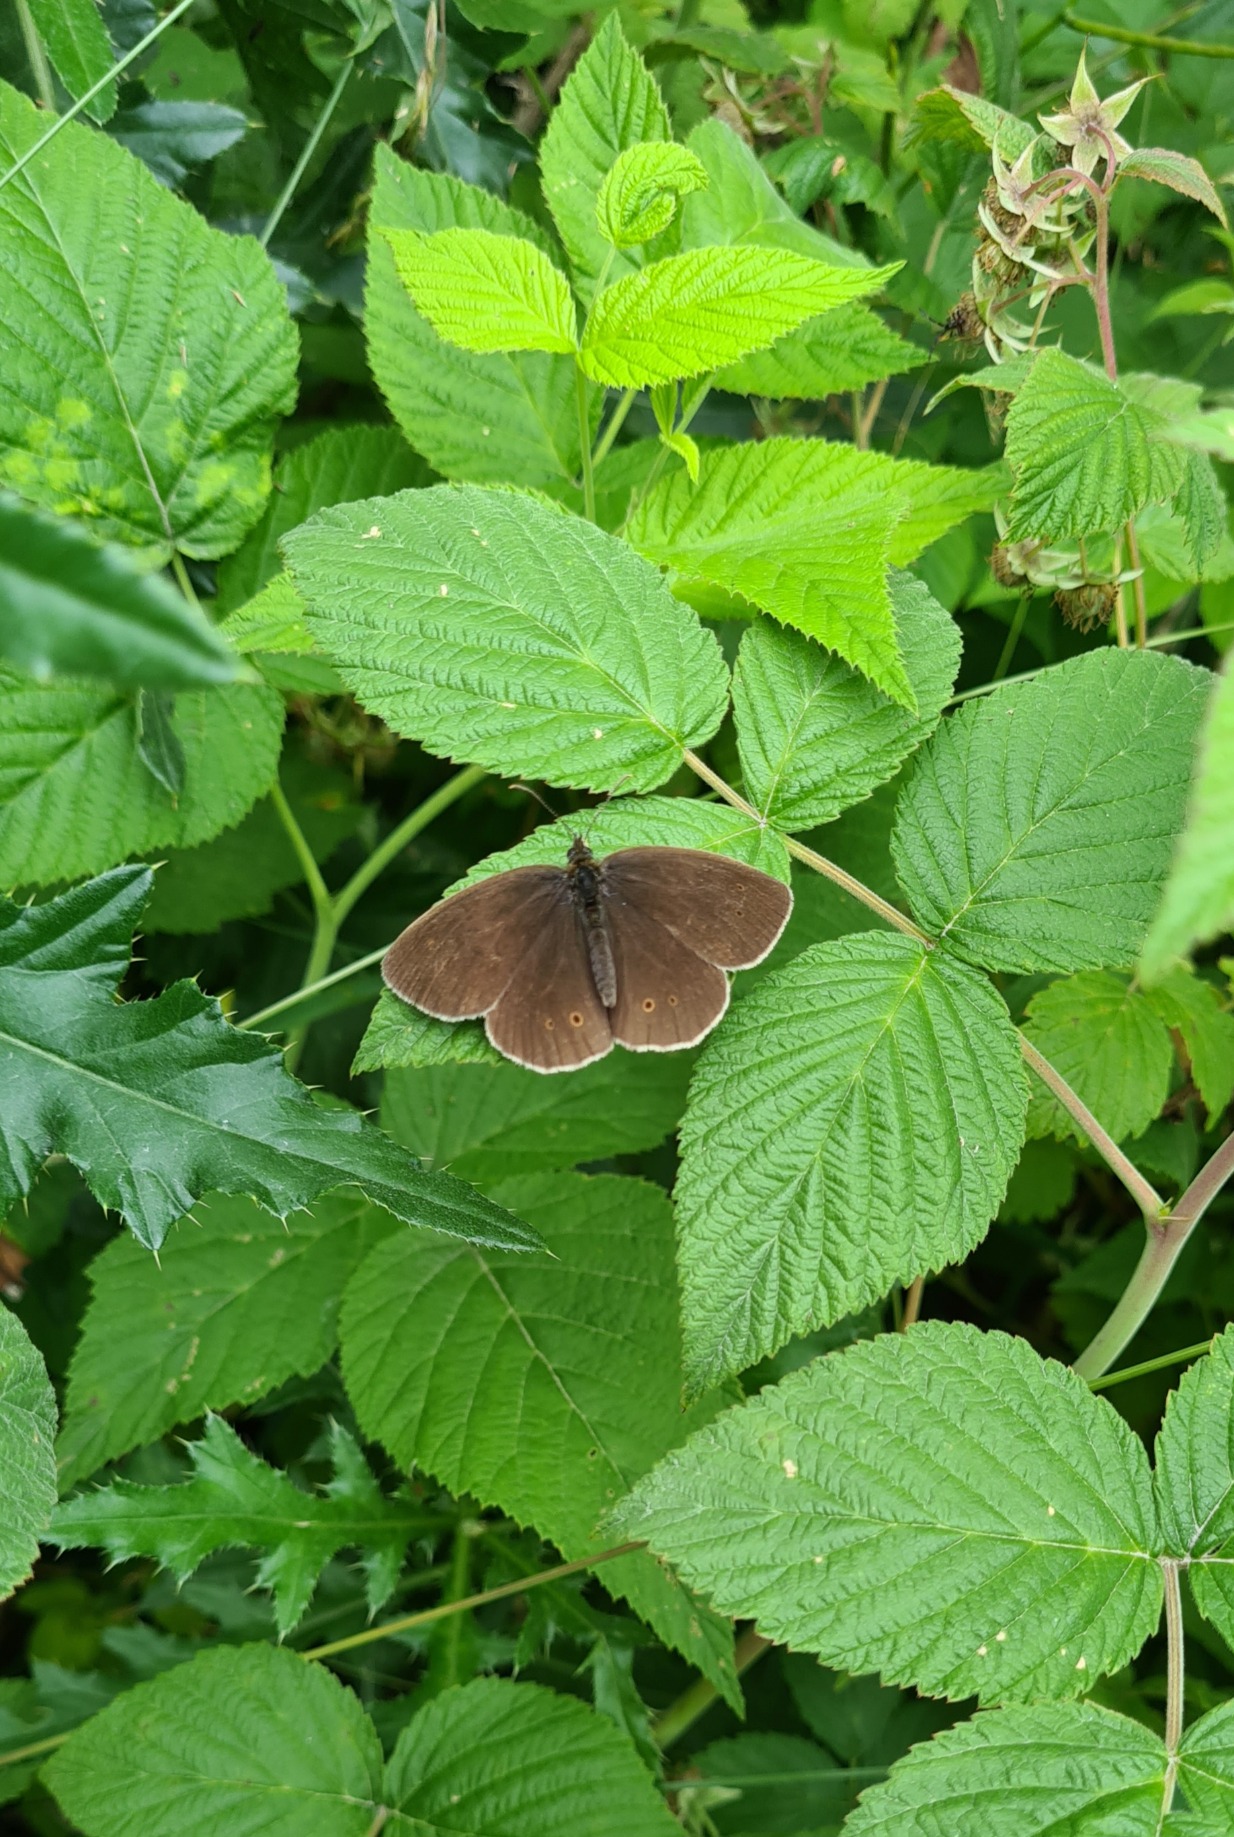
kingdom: Animalia
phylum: Arthropoda
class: Insecta
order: Lepidoptera
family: Nymphalidae
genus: Aphantopus
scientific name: Aphantopus hyperantus
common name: Engrandøje
